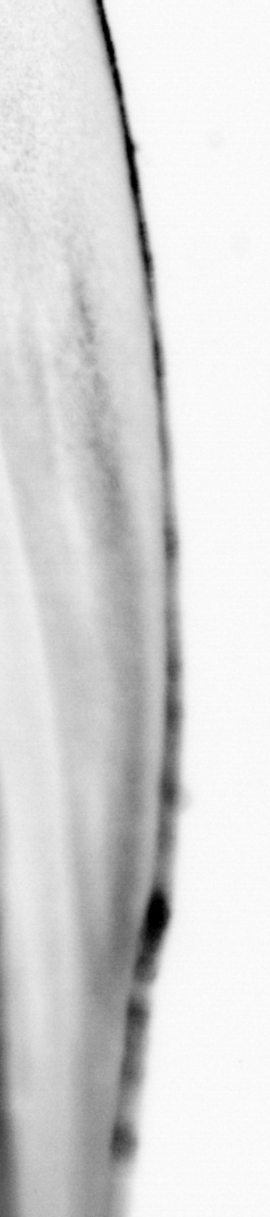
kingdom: Animalia
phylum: Chordata
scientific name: Chordata
